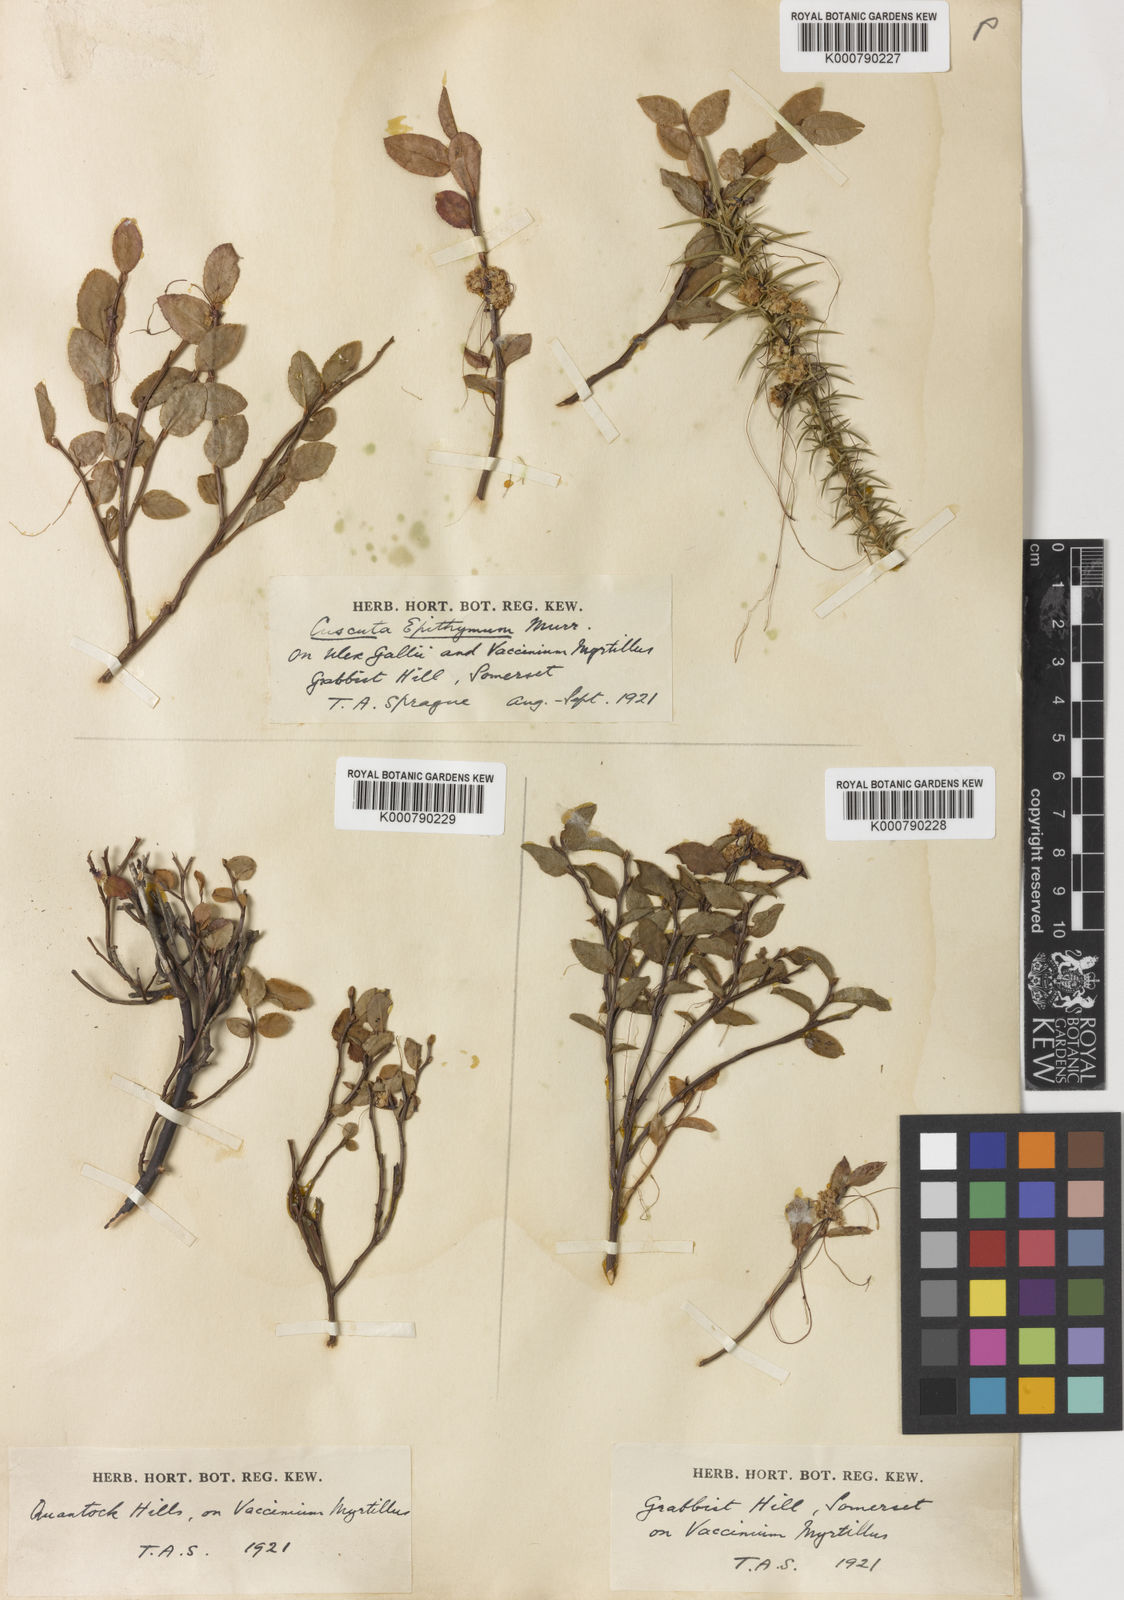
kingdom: Plantae
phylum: Tracheophyta
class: Magnoliopsida
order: Solanales
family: Convolvulaceae
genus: Cuscuta
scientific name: Cuscuta epithymum
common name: Clover dodder
